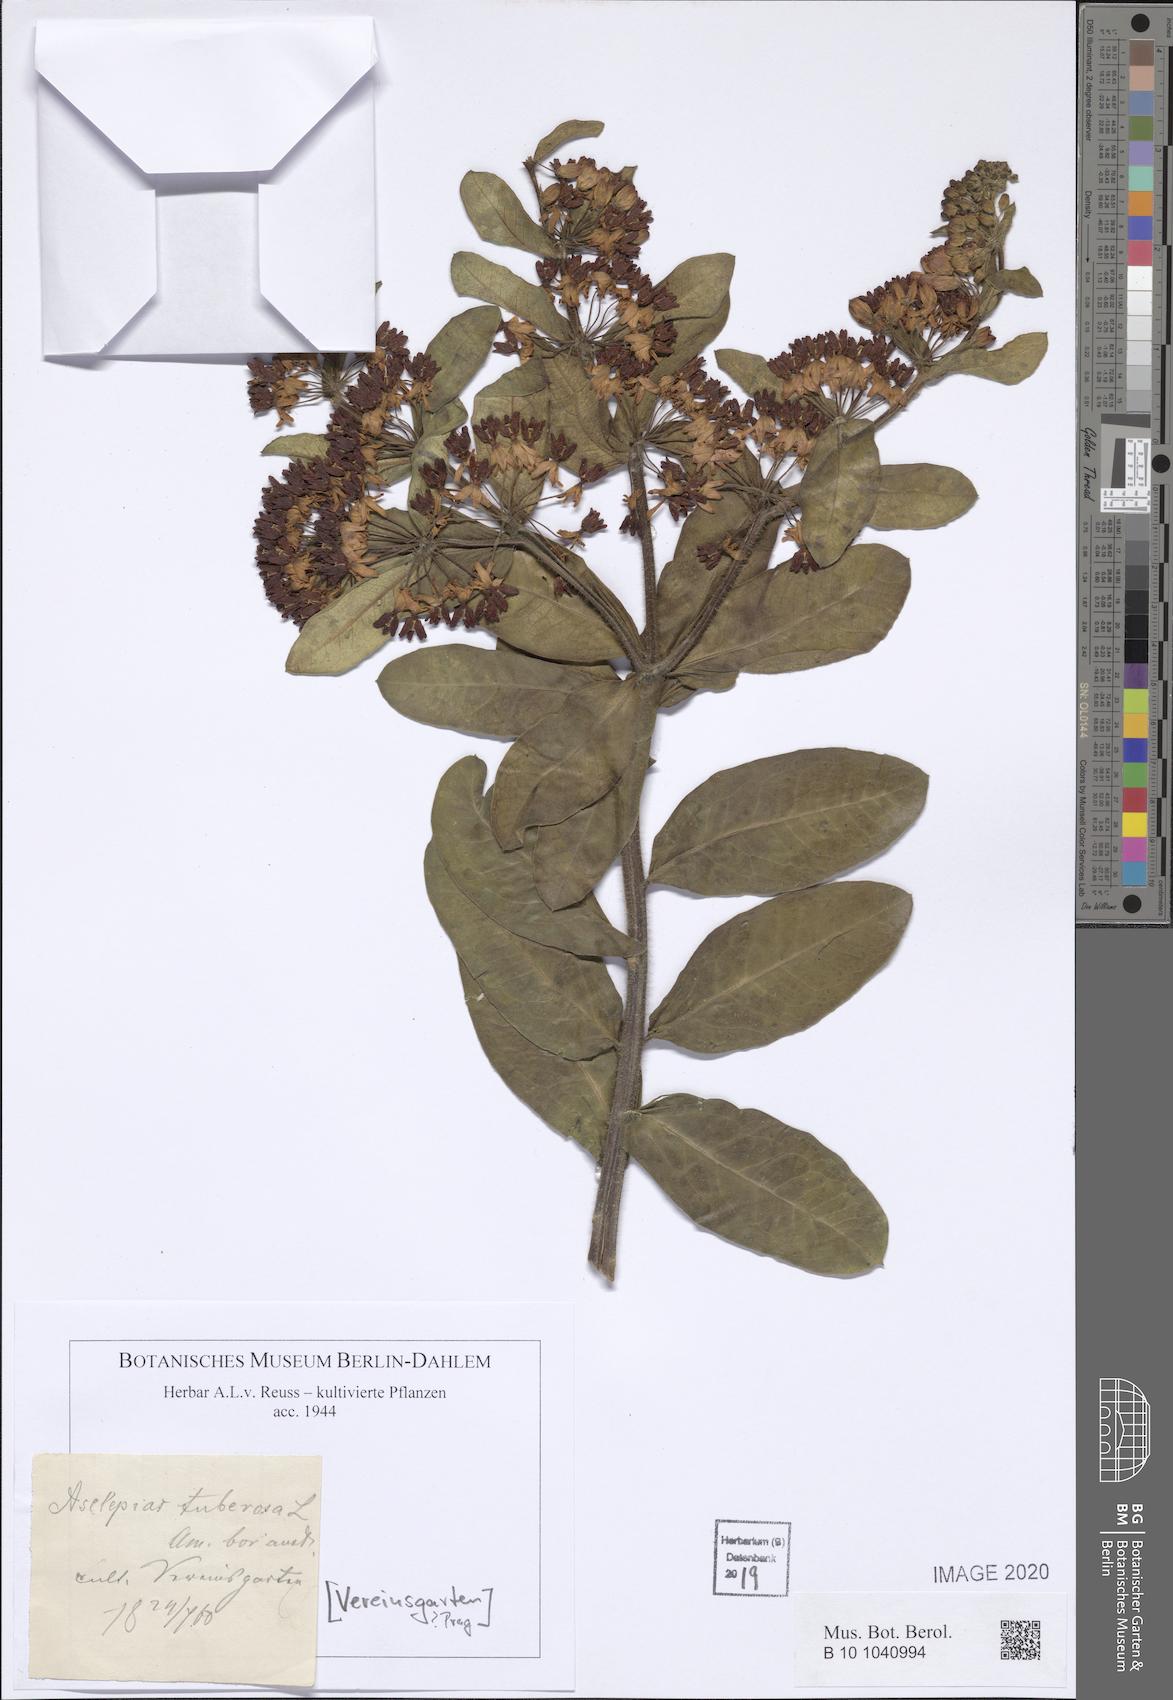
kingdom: Plantae
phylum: Tracheophyta
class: Magnoliopsida
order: Gentianales
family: Apocynaceae
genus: Asclepias
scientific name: Asclepias tuberosa
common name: Butterfly milkweed
